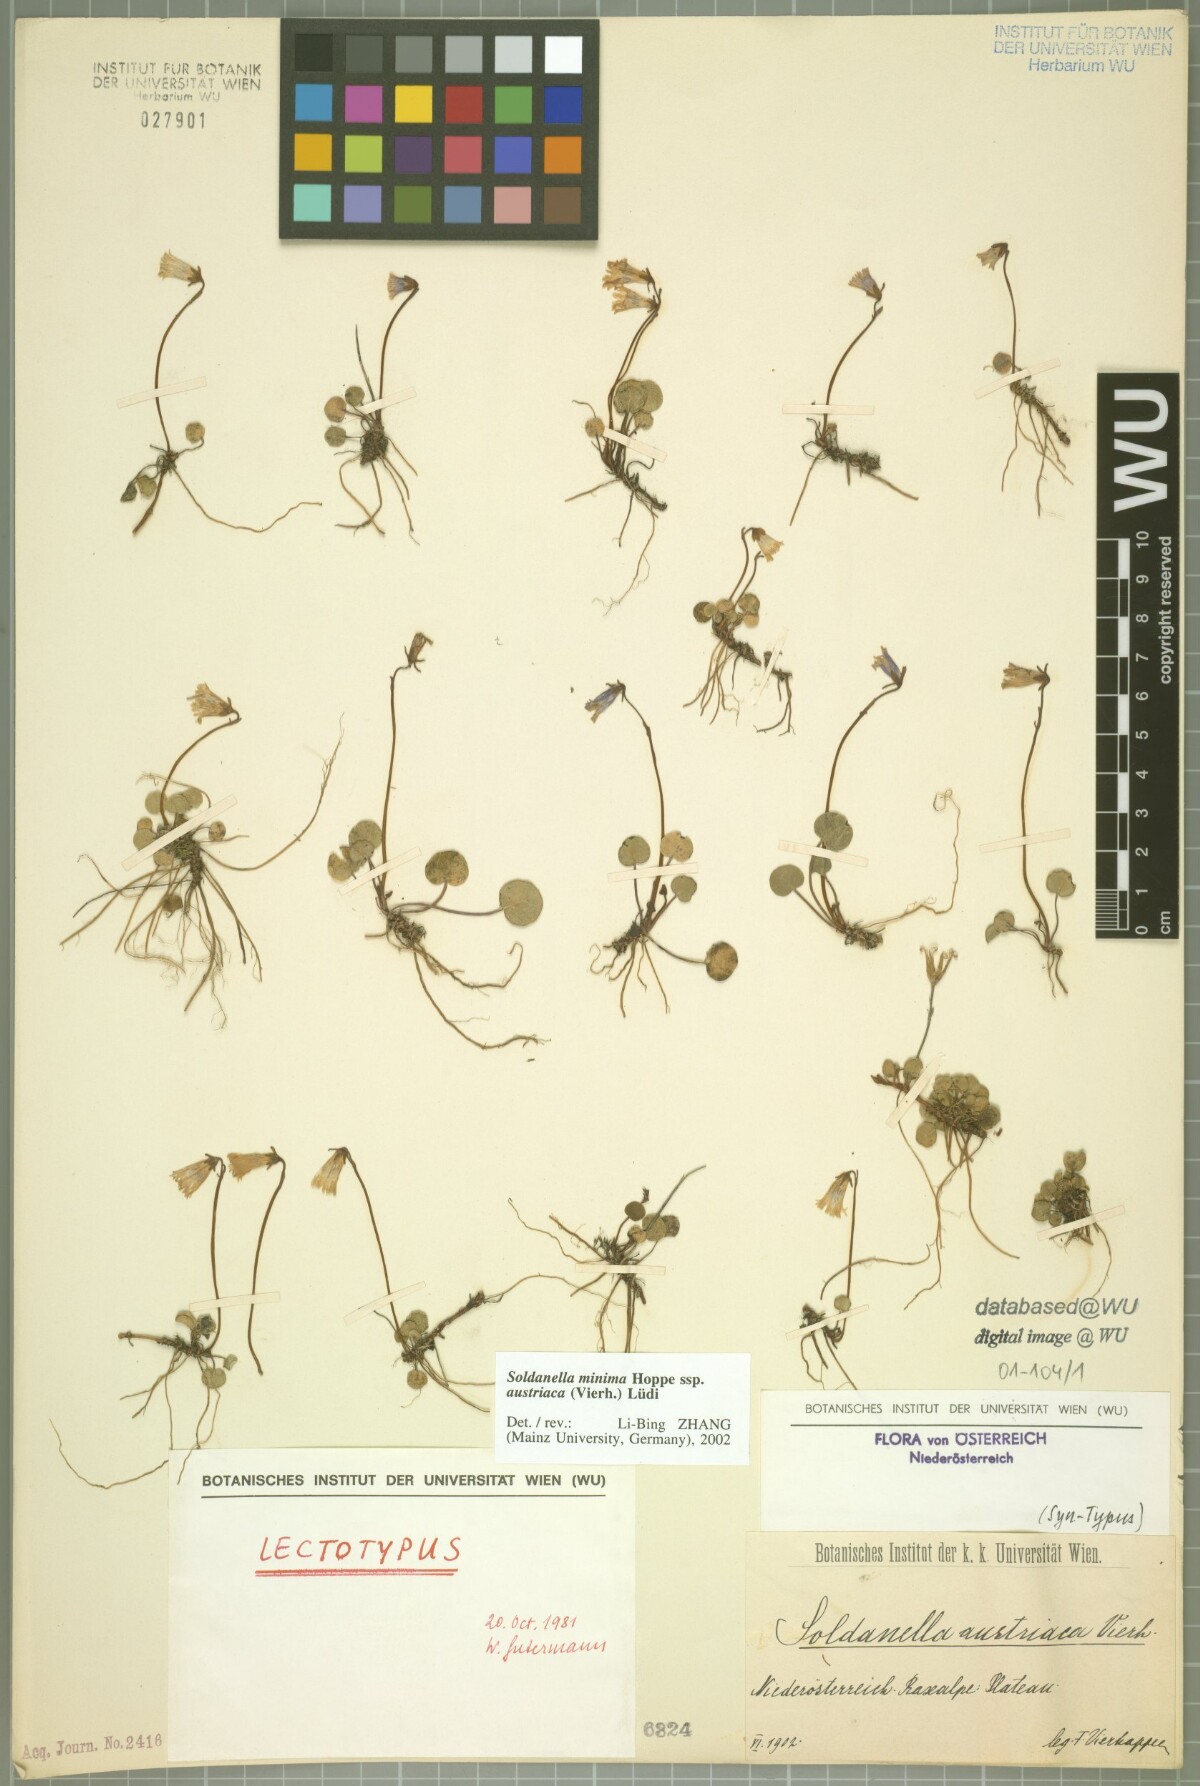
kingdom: Plantae
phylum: Tracheophyta
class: Magnoliopsida
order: Ericales
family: Primulaceae
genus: Soldanella
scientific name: Soldanella austriaca
